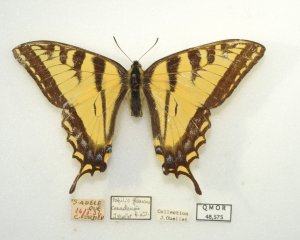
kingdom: Animalia
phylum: Arthropoda
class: Insecta
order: Lepidoptera
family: Papilionidae
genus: Pterourus
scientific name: Pterourus glaucus
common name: Eastern Tiger Swallowtail
